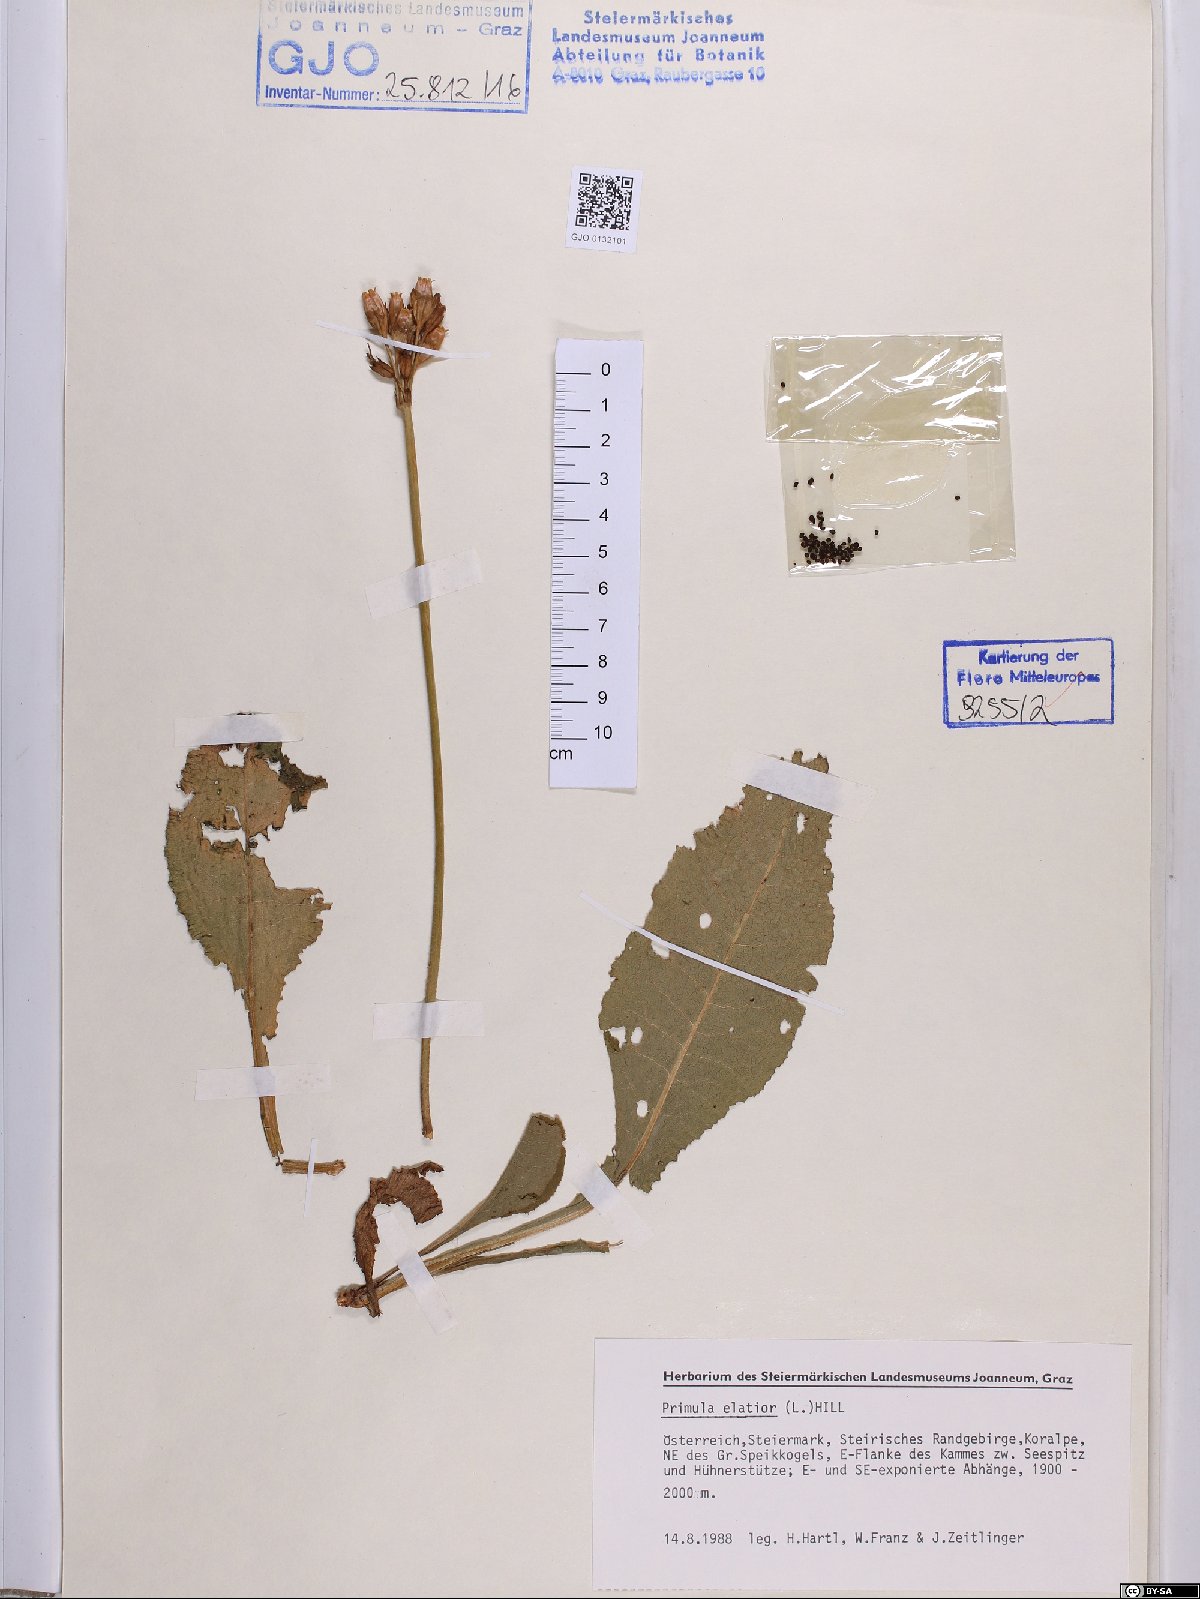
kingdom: Plantae
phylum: Tracheophyta
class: Magnoliopsida
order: Ericales
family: Primulaceae
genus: Primula
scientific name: Primula elatior
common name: Oxlip
